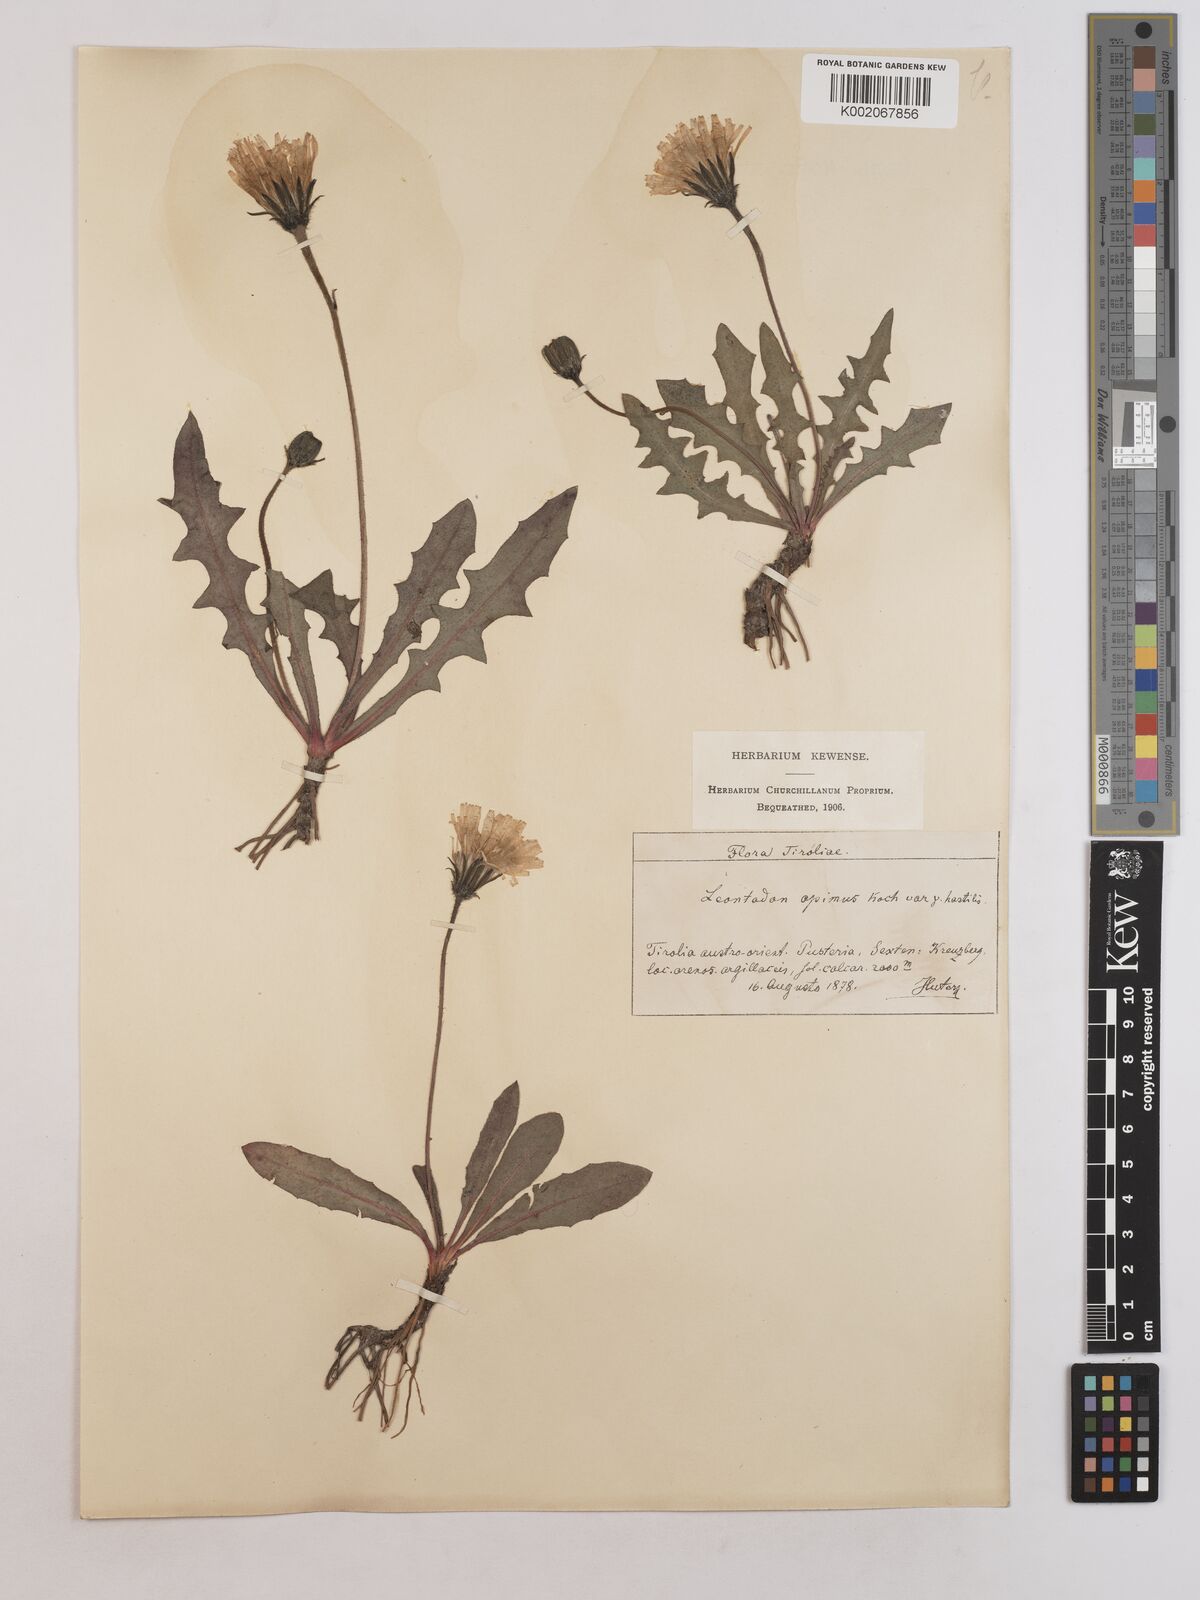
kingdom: Plantae
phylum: Tracheophyta
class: Magnoliopsida
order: Asterales
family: Asteraceae
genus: Leontodon
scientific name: Leontodon hispidus
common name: Rough hawkbit
